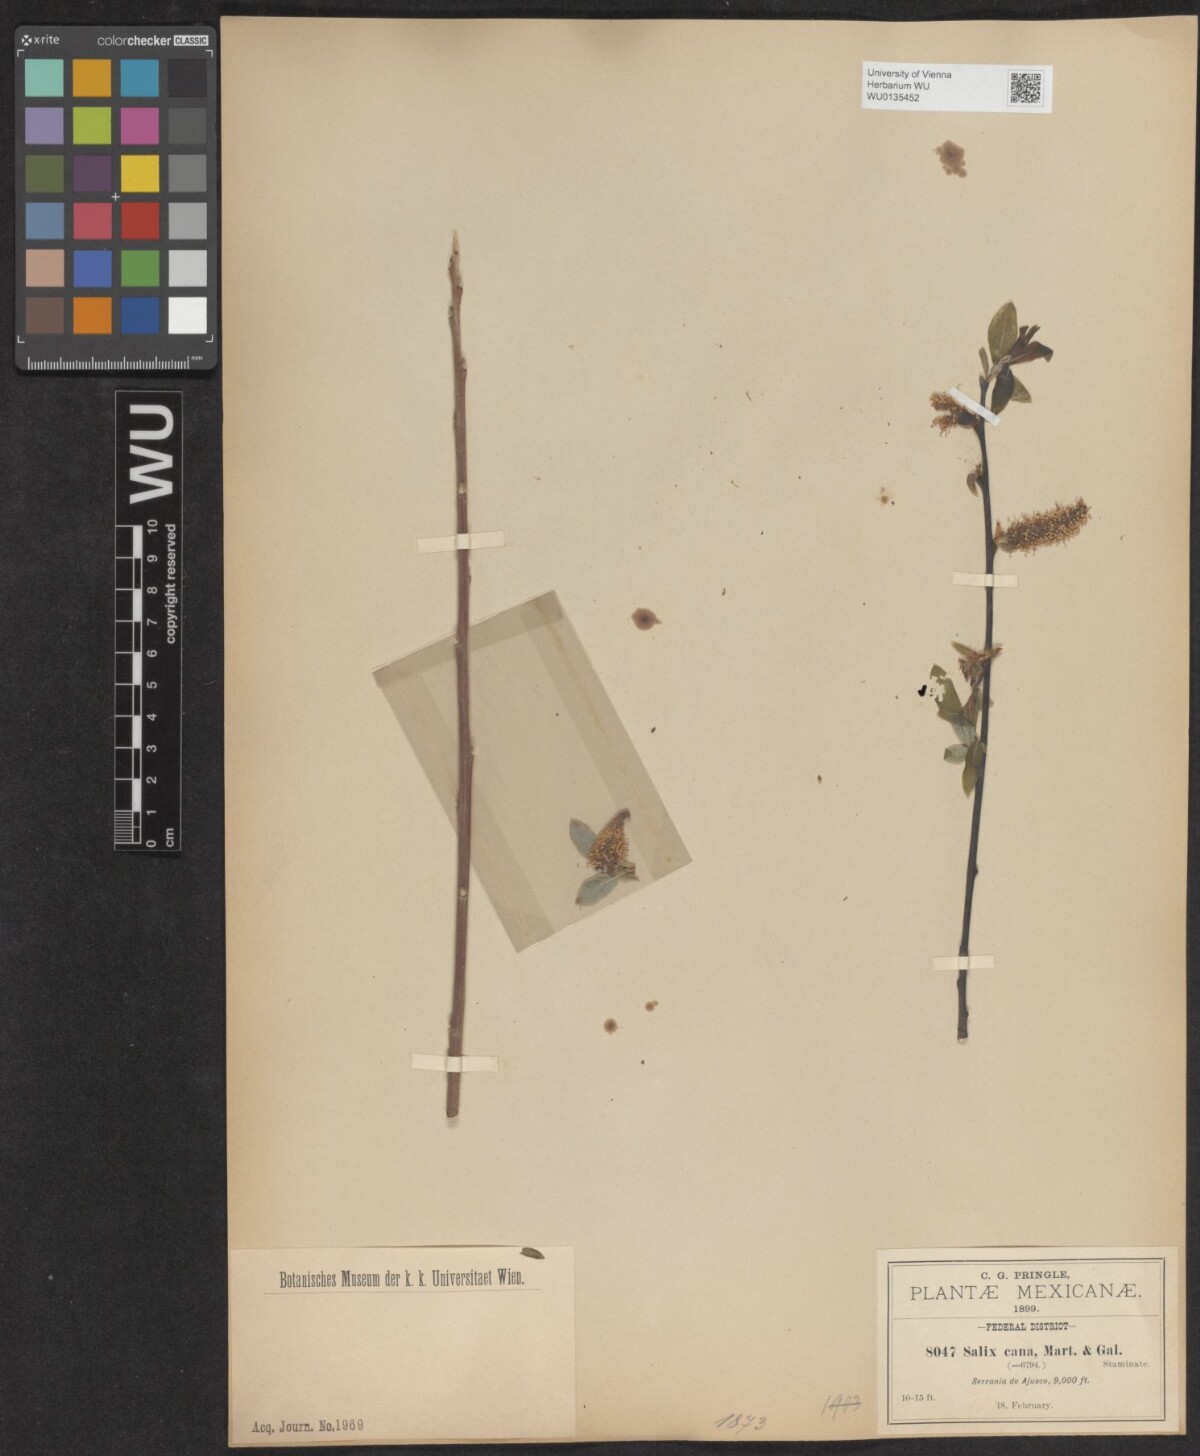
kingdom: Plantae
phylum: Tracheophyta
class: Magnoliopsida
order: Malpighiales
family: Salicaceae
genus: Salix
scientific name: Salix cana
